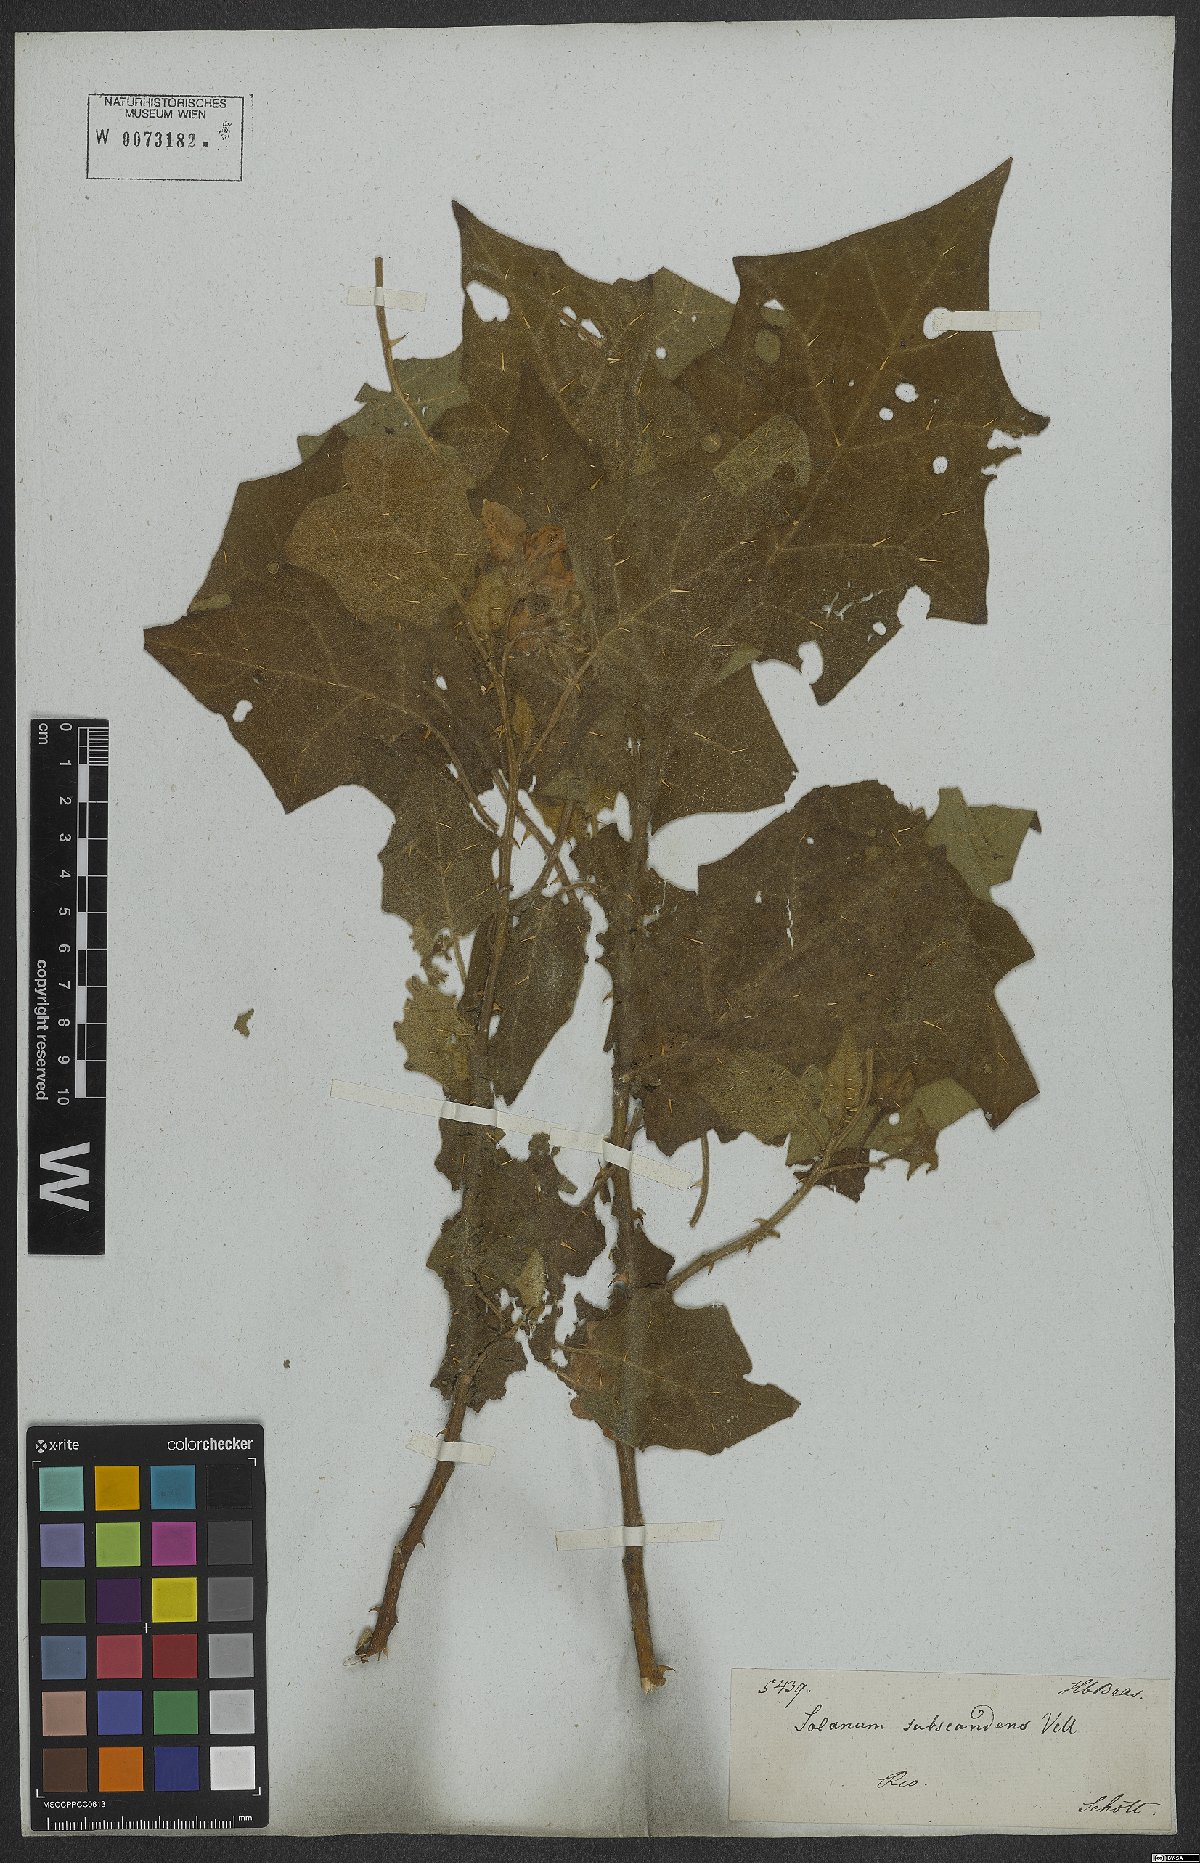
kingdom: Plantae
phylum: Tracheophyta
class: Magnoliopsida
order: Solanales
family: Solanaceae
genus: Solanum
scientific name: Solanum sublentum
